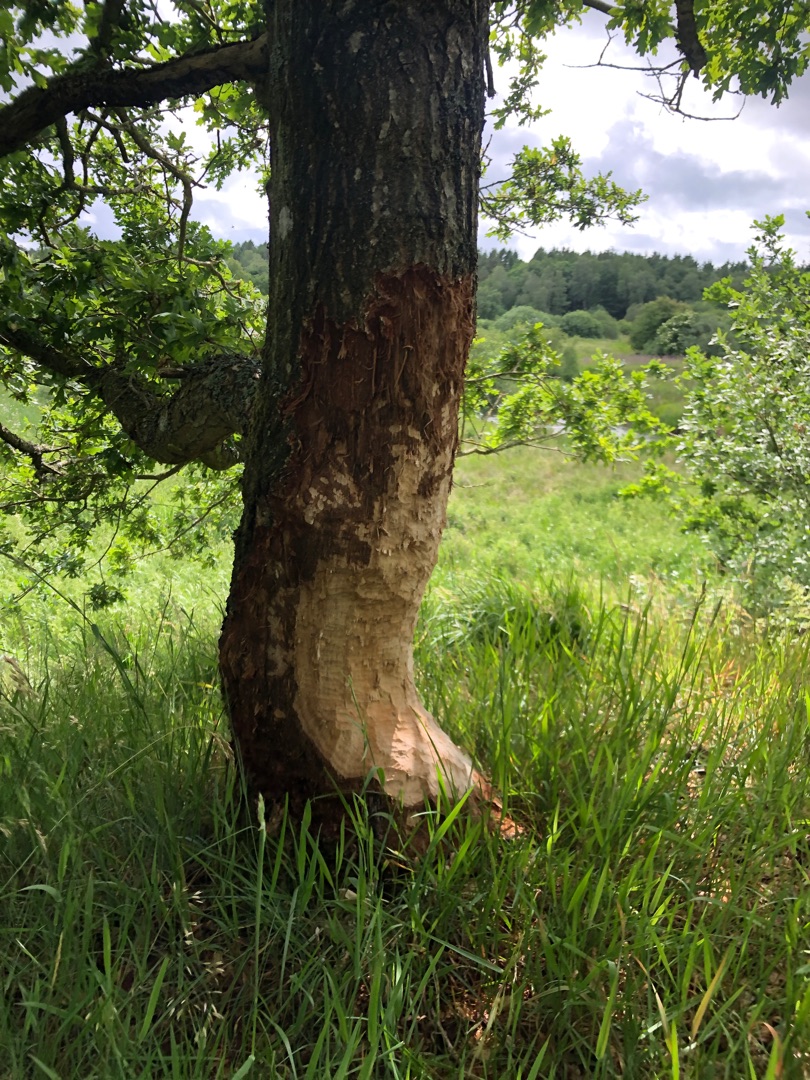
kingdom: Animalia
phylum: Chordata
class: Mammalia
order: Rodentia
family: Castoridae
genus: Castor
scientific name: Castor fiber
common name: Bæver
